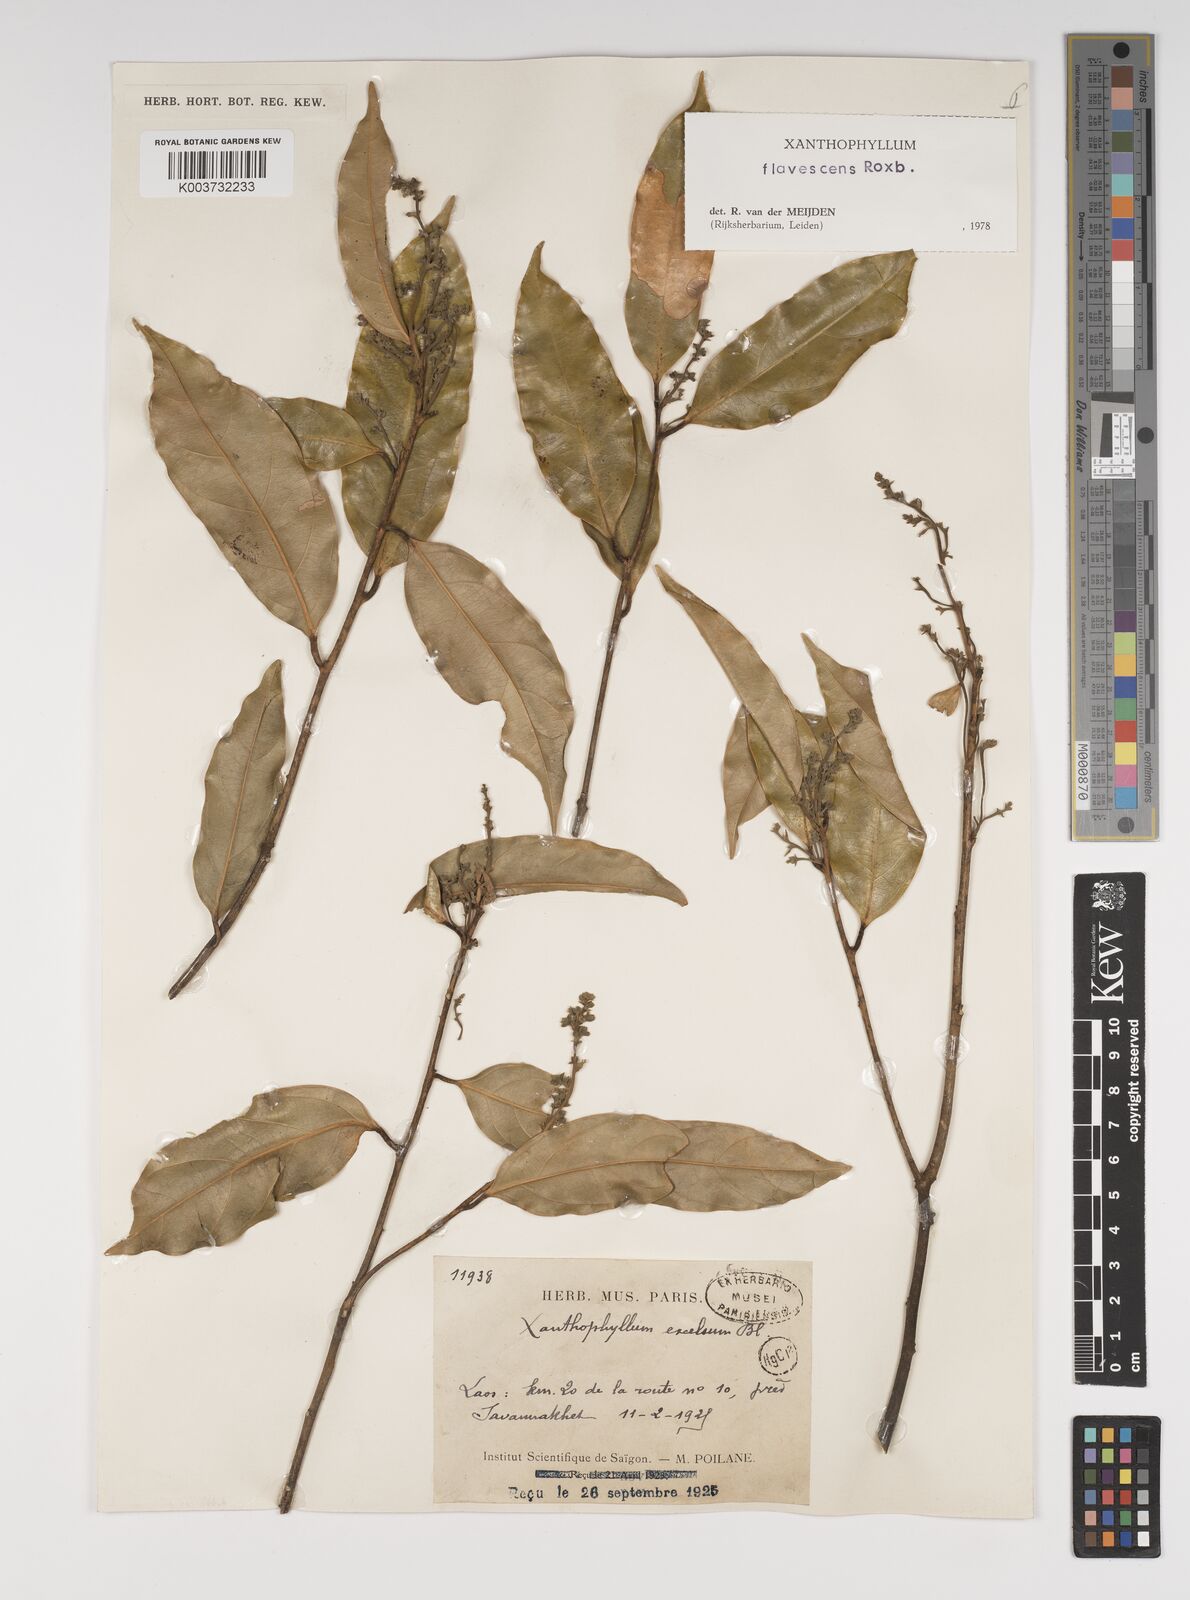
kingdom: Plantae
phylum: Tracheophyta
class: Magnoliopsida
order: Fabales
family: Polygalaceae
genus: Xanthophyllum
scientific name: Xanthophyllum flavescens
